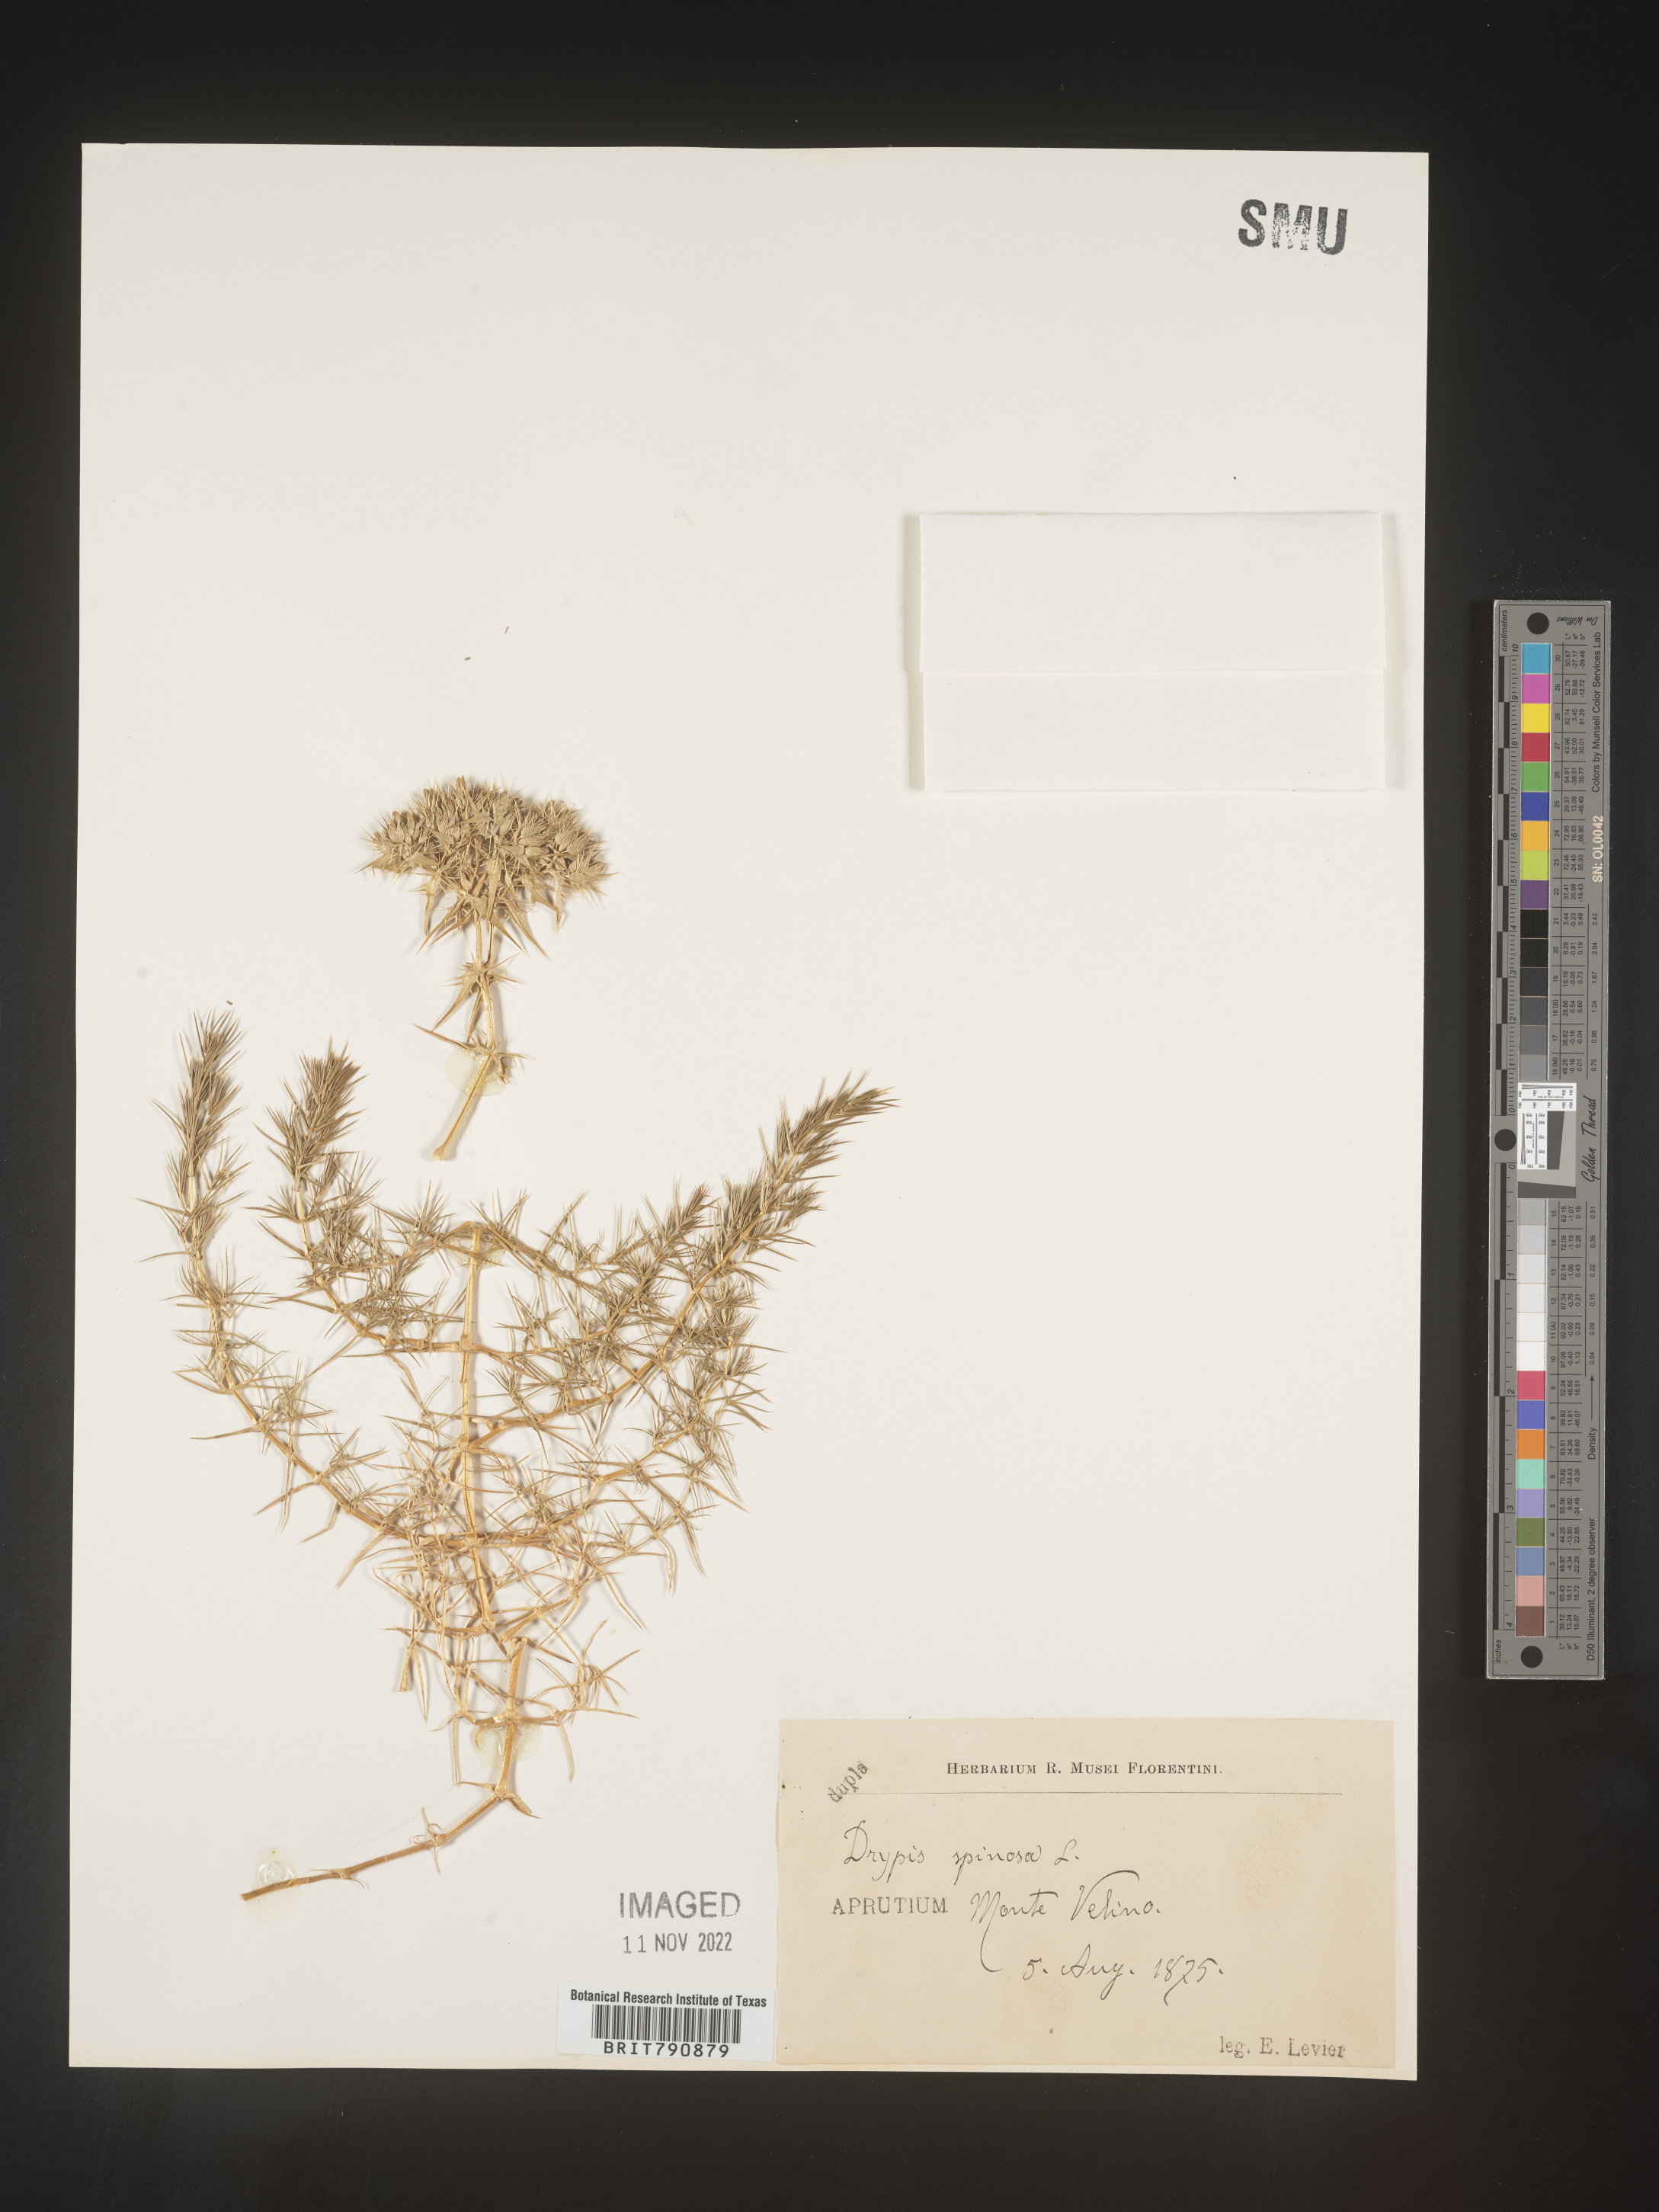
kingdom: Plantae
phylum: Tracheophyta
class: Magnoliopsida
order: Caryophyllales
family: Caryophyllaceae
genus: Drypis
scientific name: Drypis
